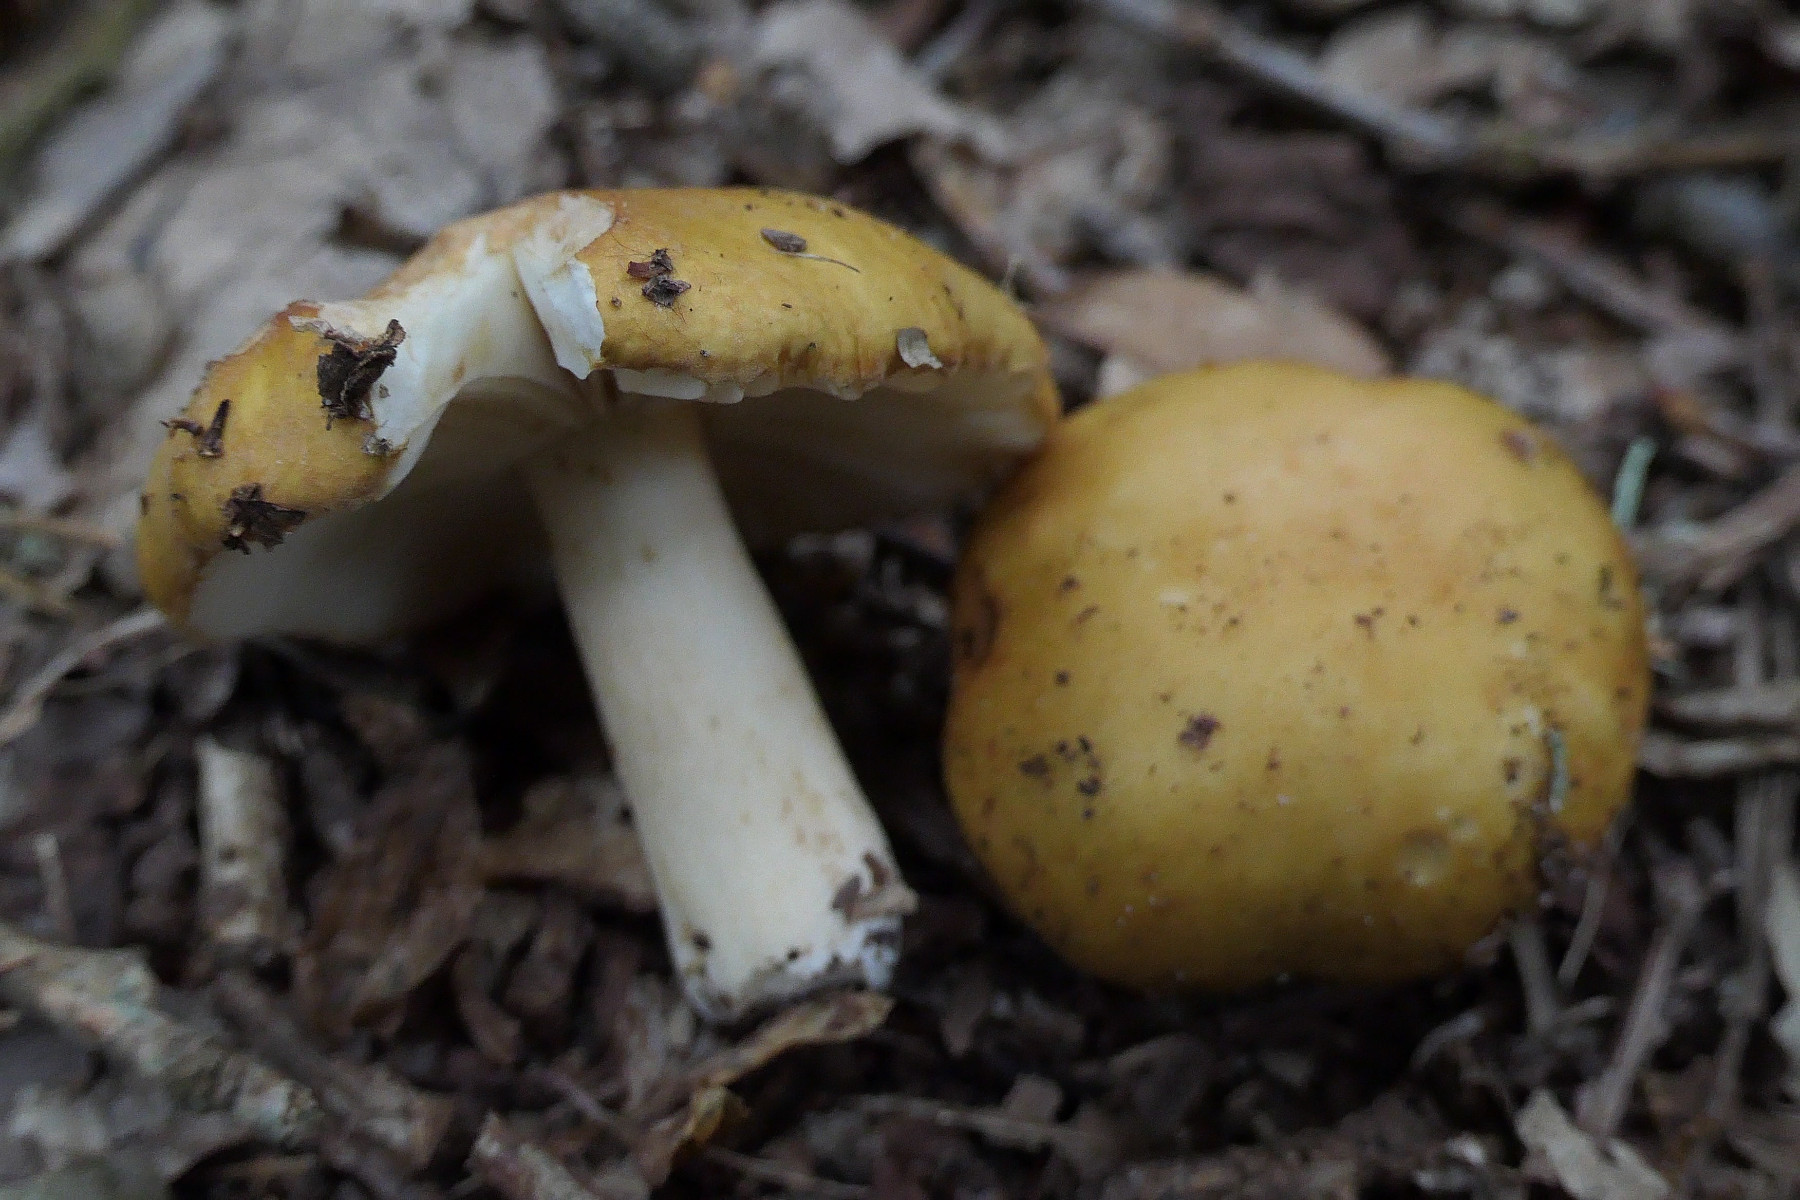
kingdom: Fungi
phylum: Basidiomycota
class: Agaricomycetes
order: Russulales
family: Russulaceae
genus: Russula
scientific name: Russula fellea
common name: galde-skørhat
